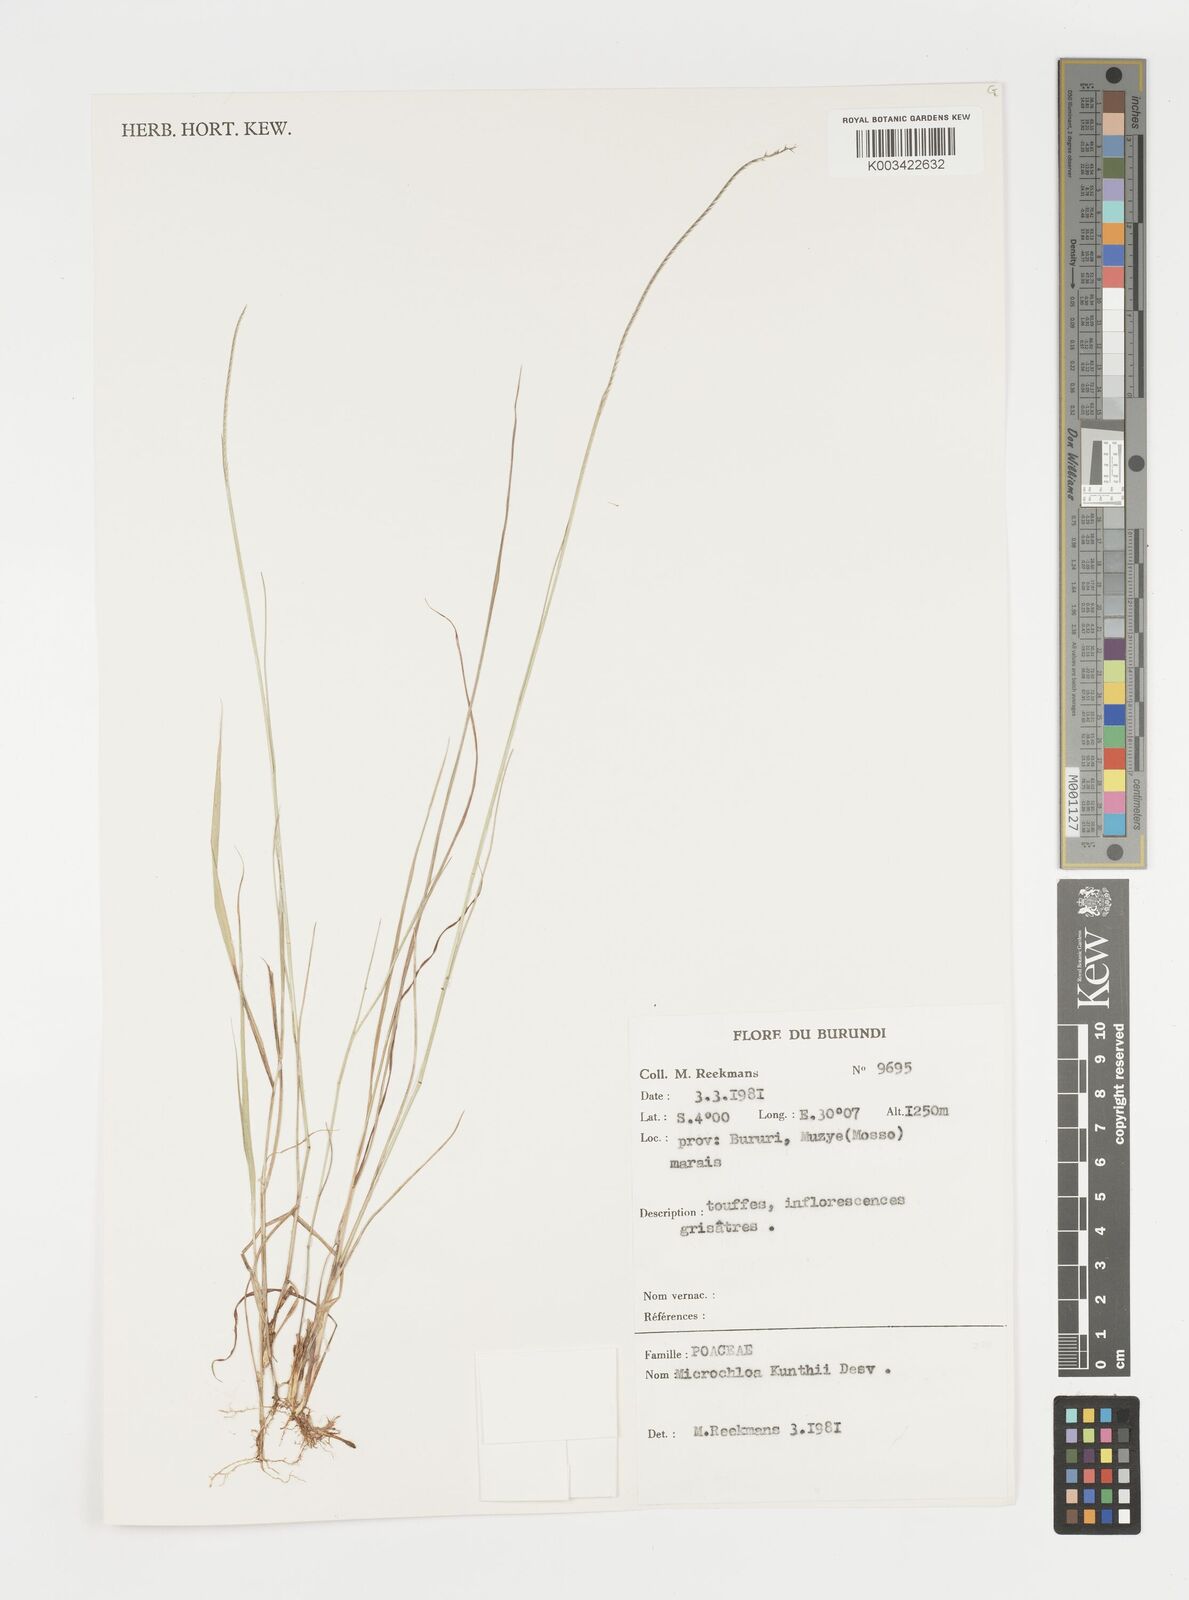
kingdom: Plantae
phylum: Tracheophyta
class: Liliopsida
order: Poales
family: Poaceae
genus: Microchloa
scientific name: Microchloa kunthii
